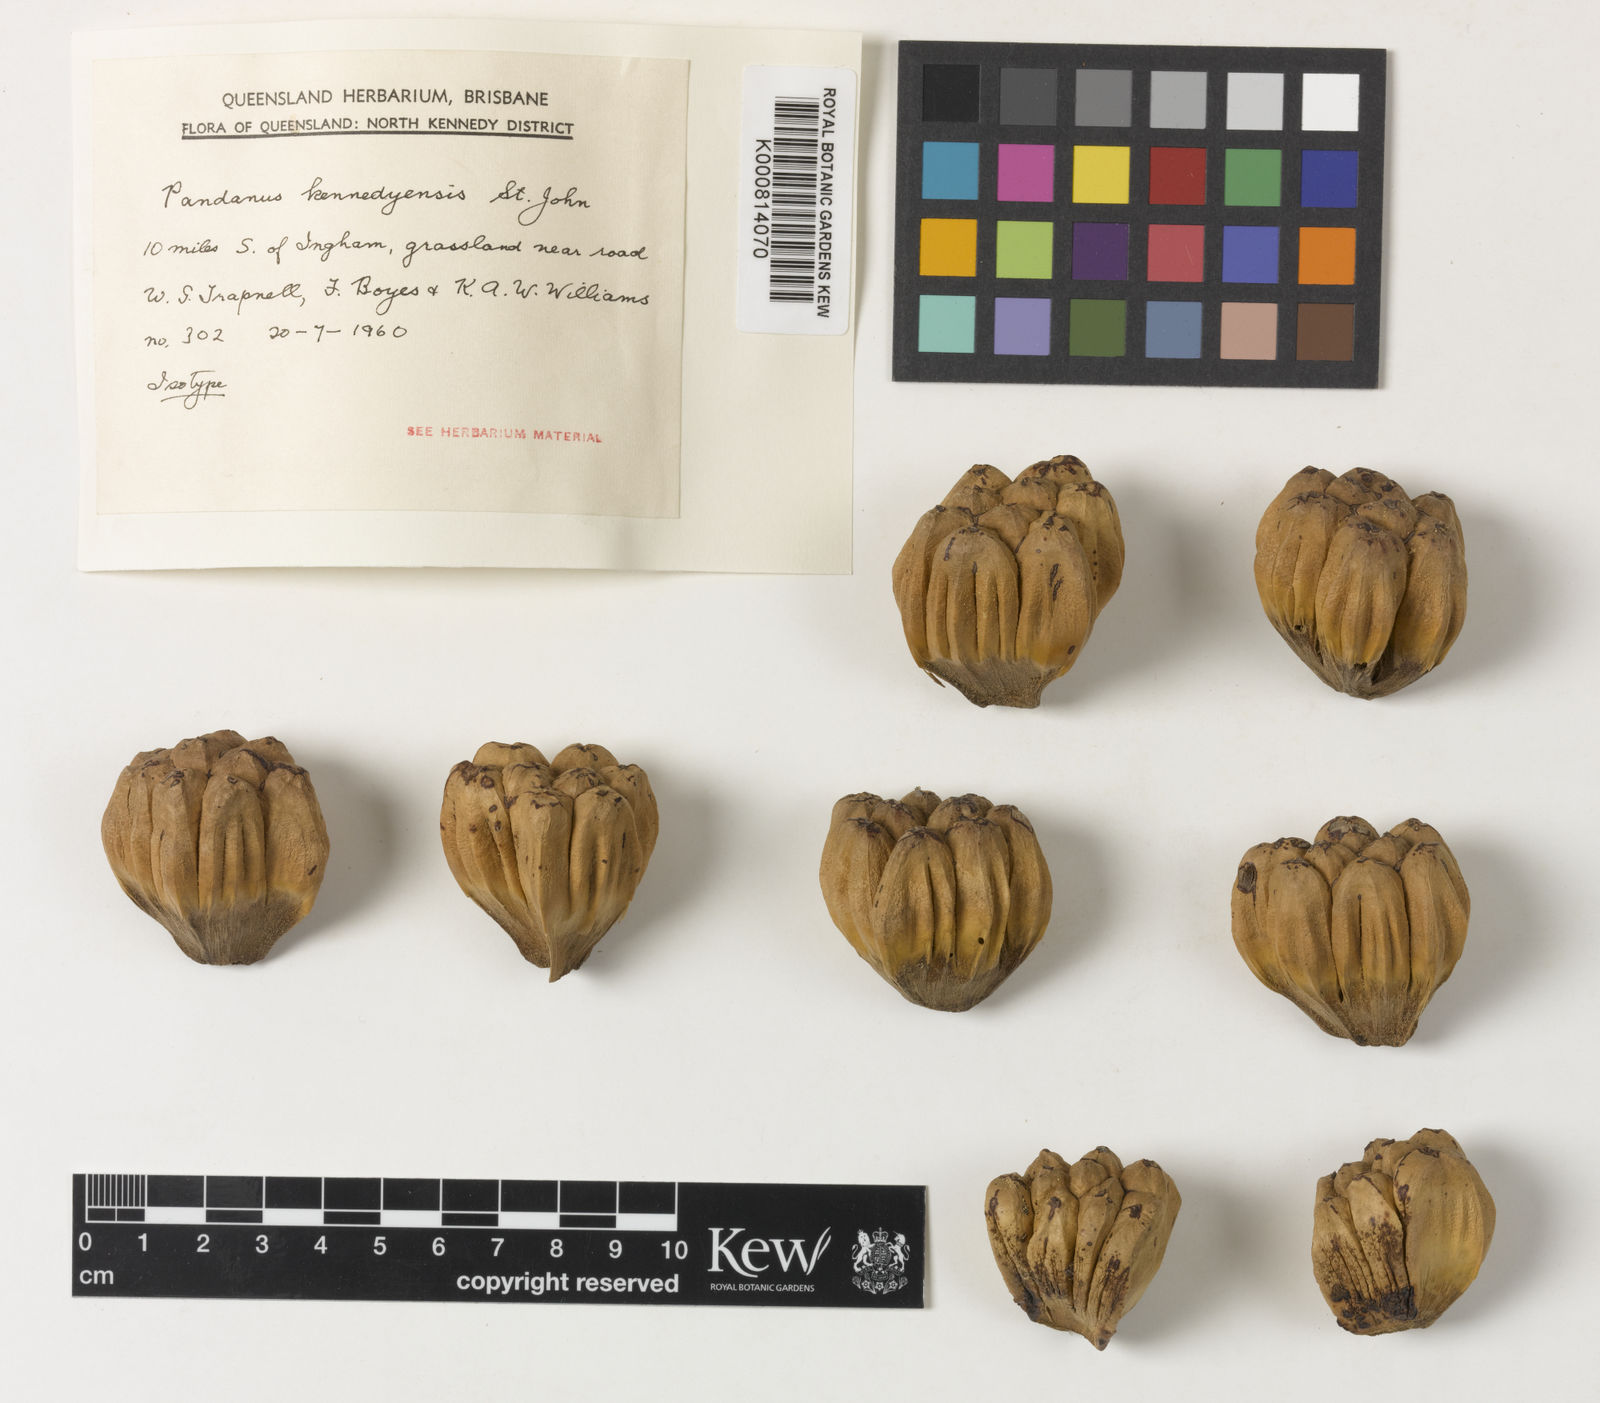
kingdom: Plantae
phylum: Tracheophyta
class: Liliopsida
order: Pandanales
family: Pandanaceae
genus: Pandanus
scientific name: Pandanus cookii
